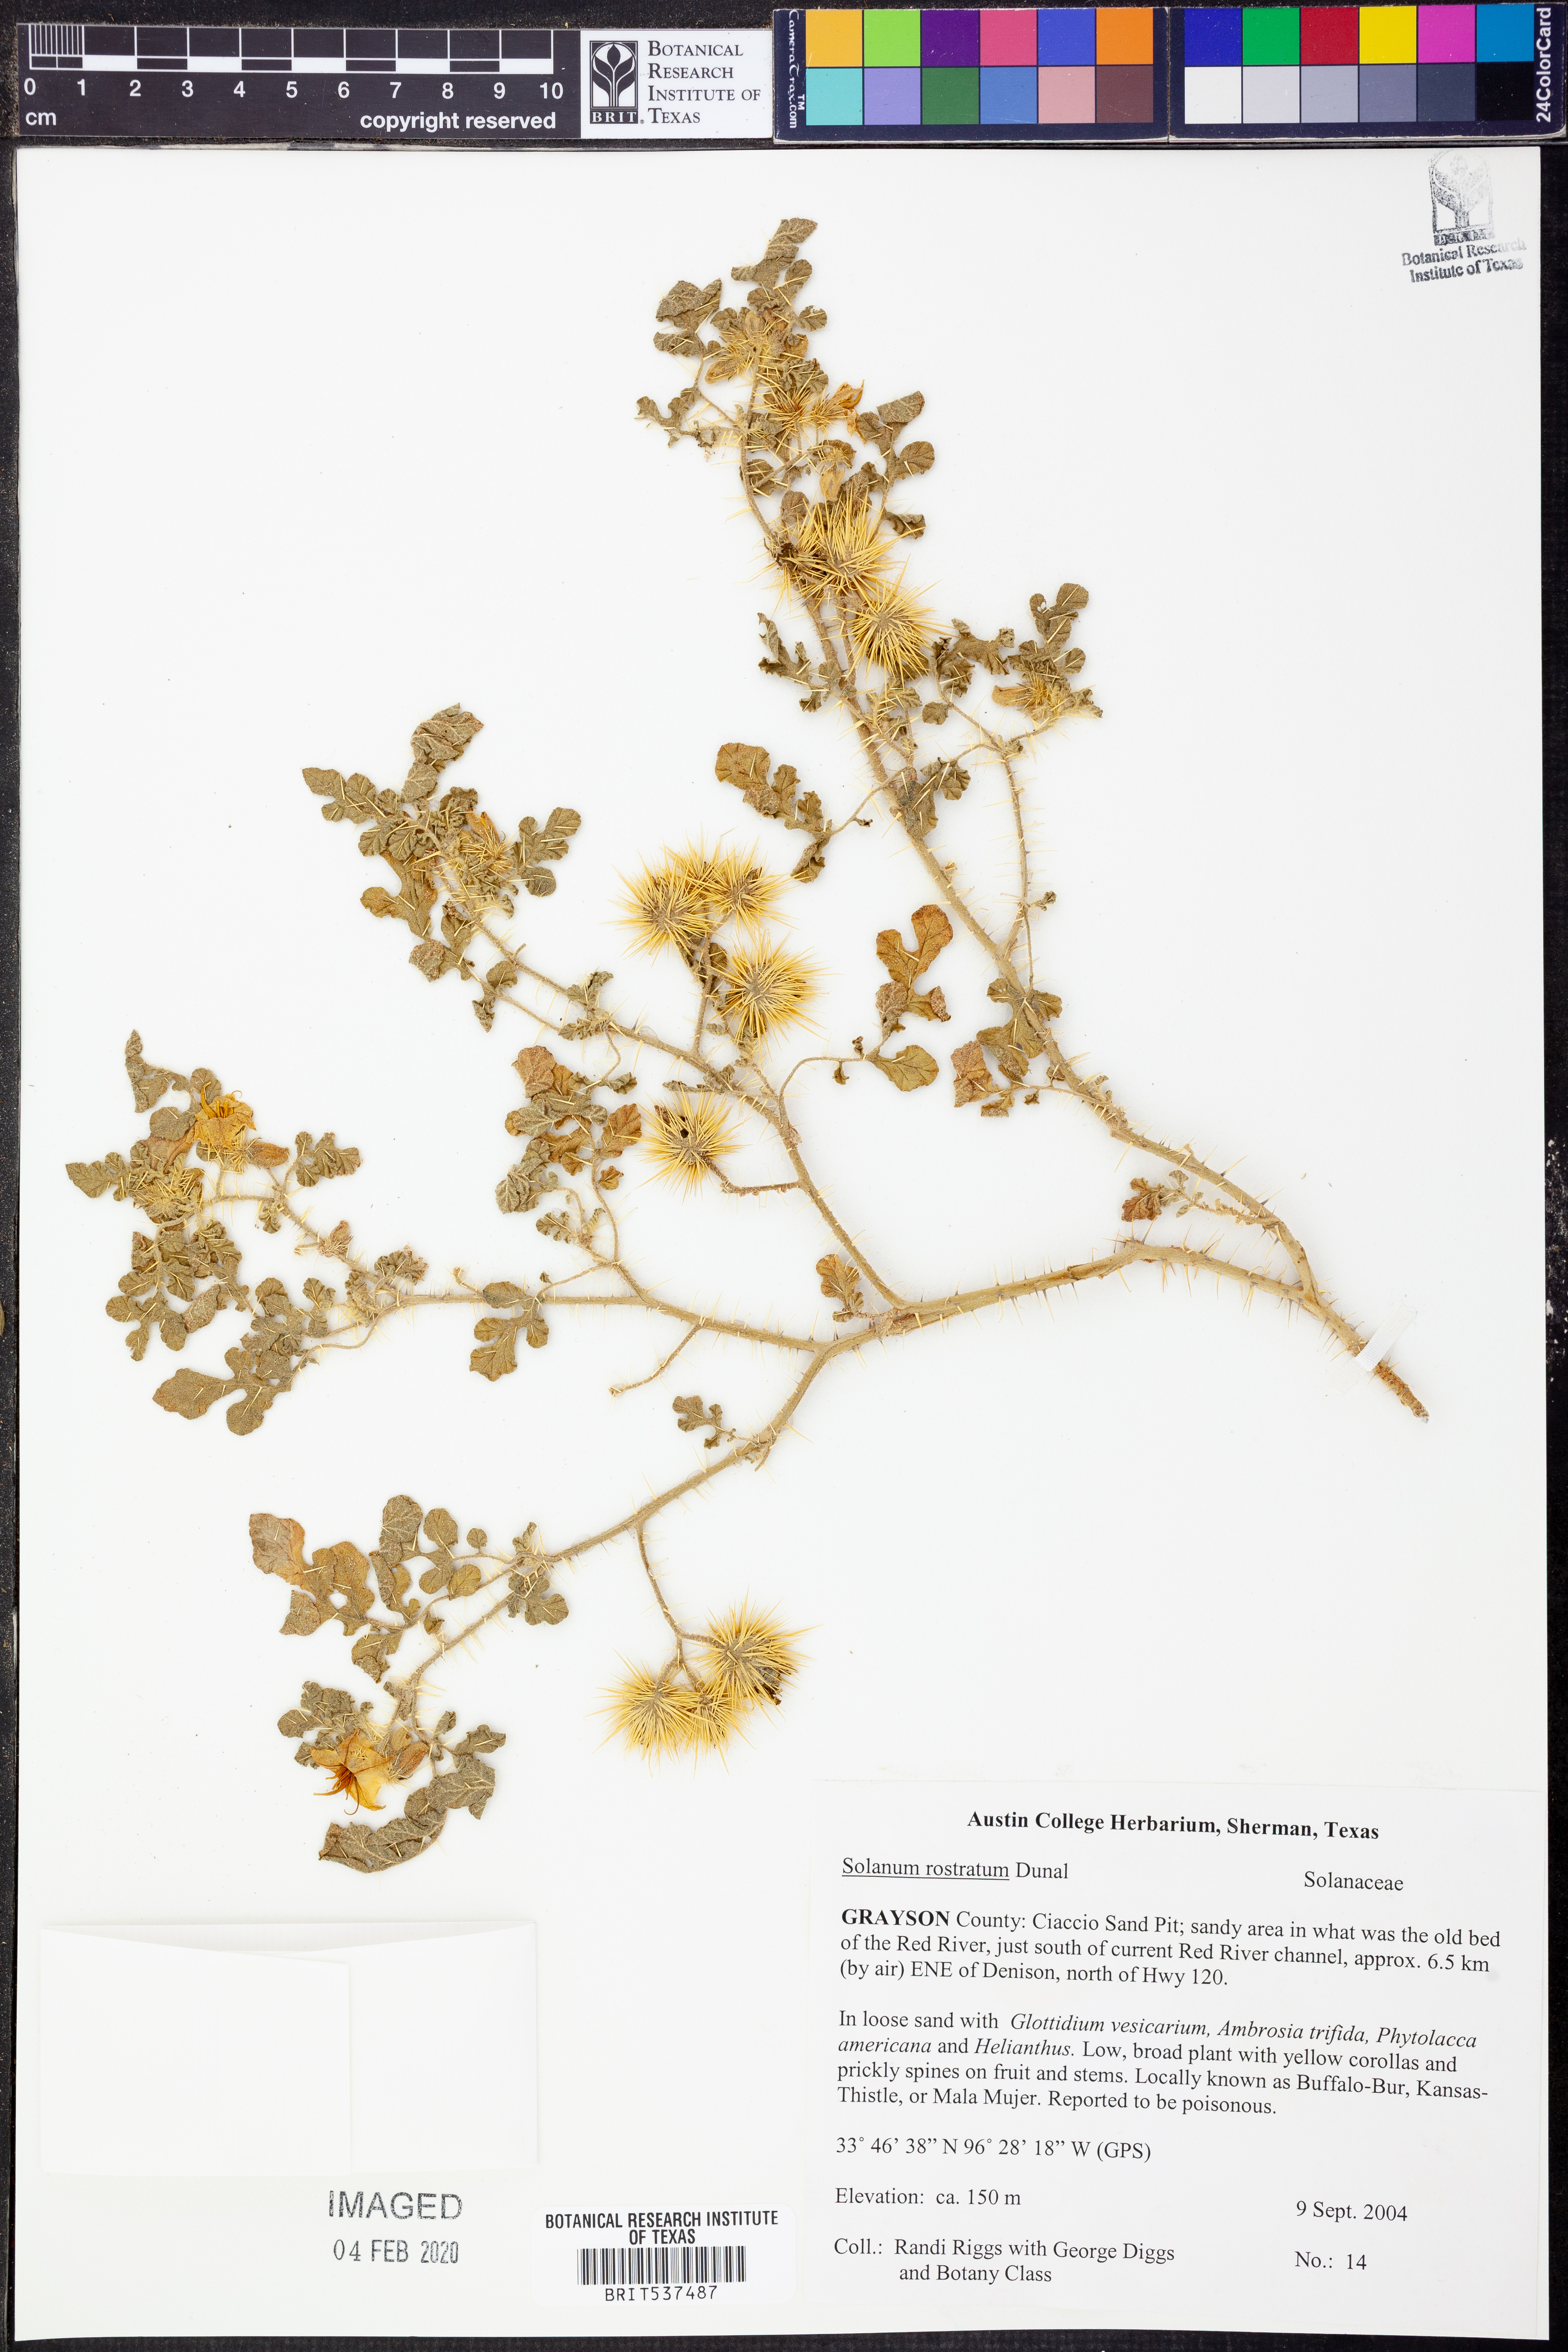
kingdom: Plantae
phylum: Tracheophyta
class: Magnoliopsida
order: Solanales
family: Solanaceae
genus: Solanum
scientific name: Solanum angustifolium
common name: Buffalobur nightshade
